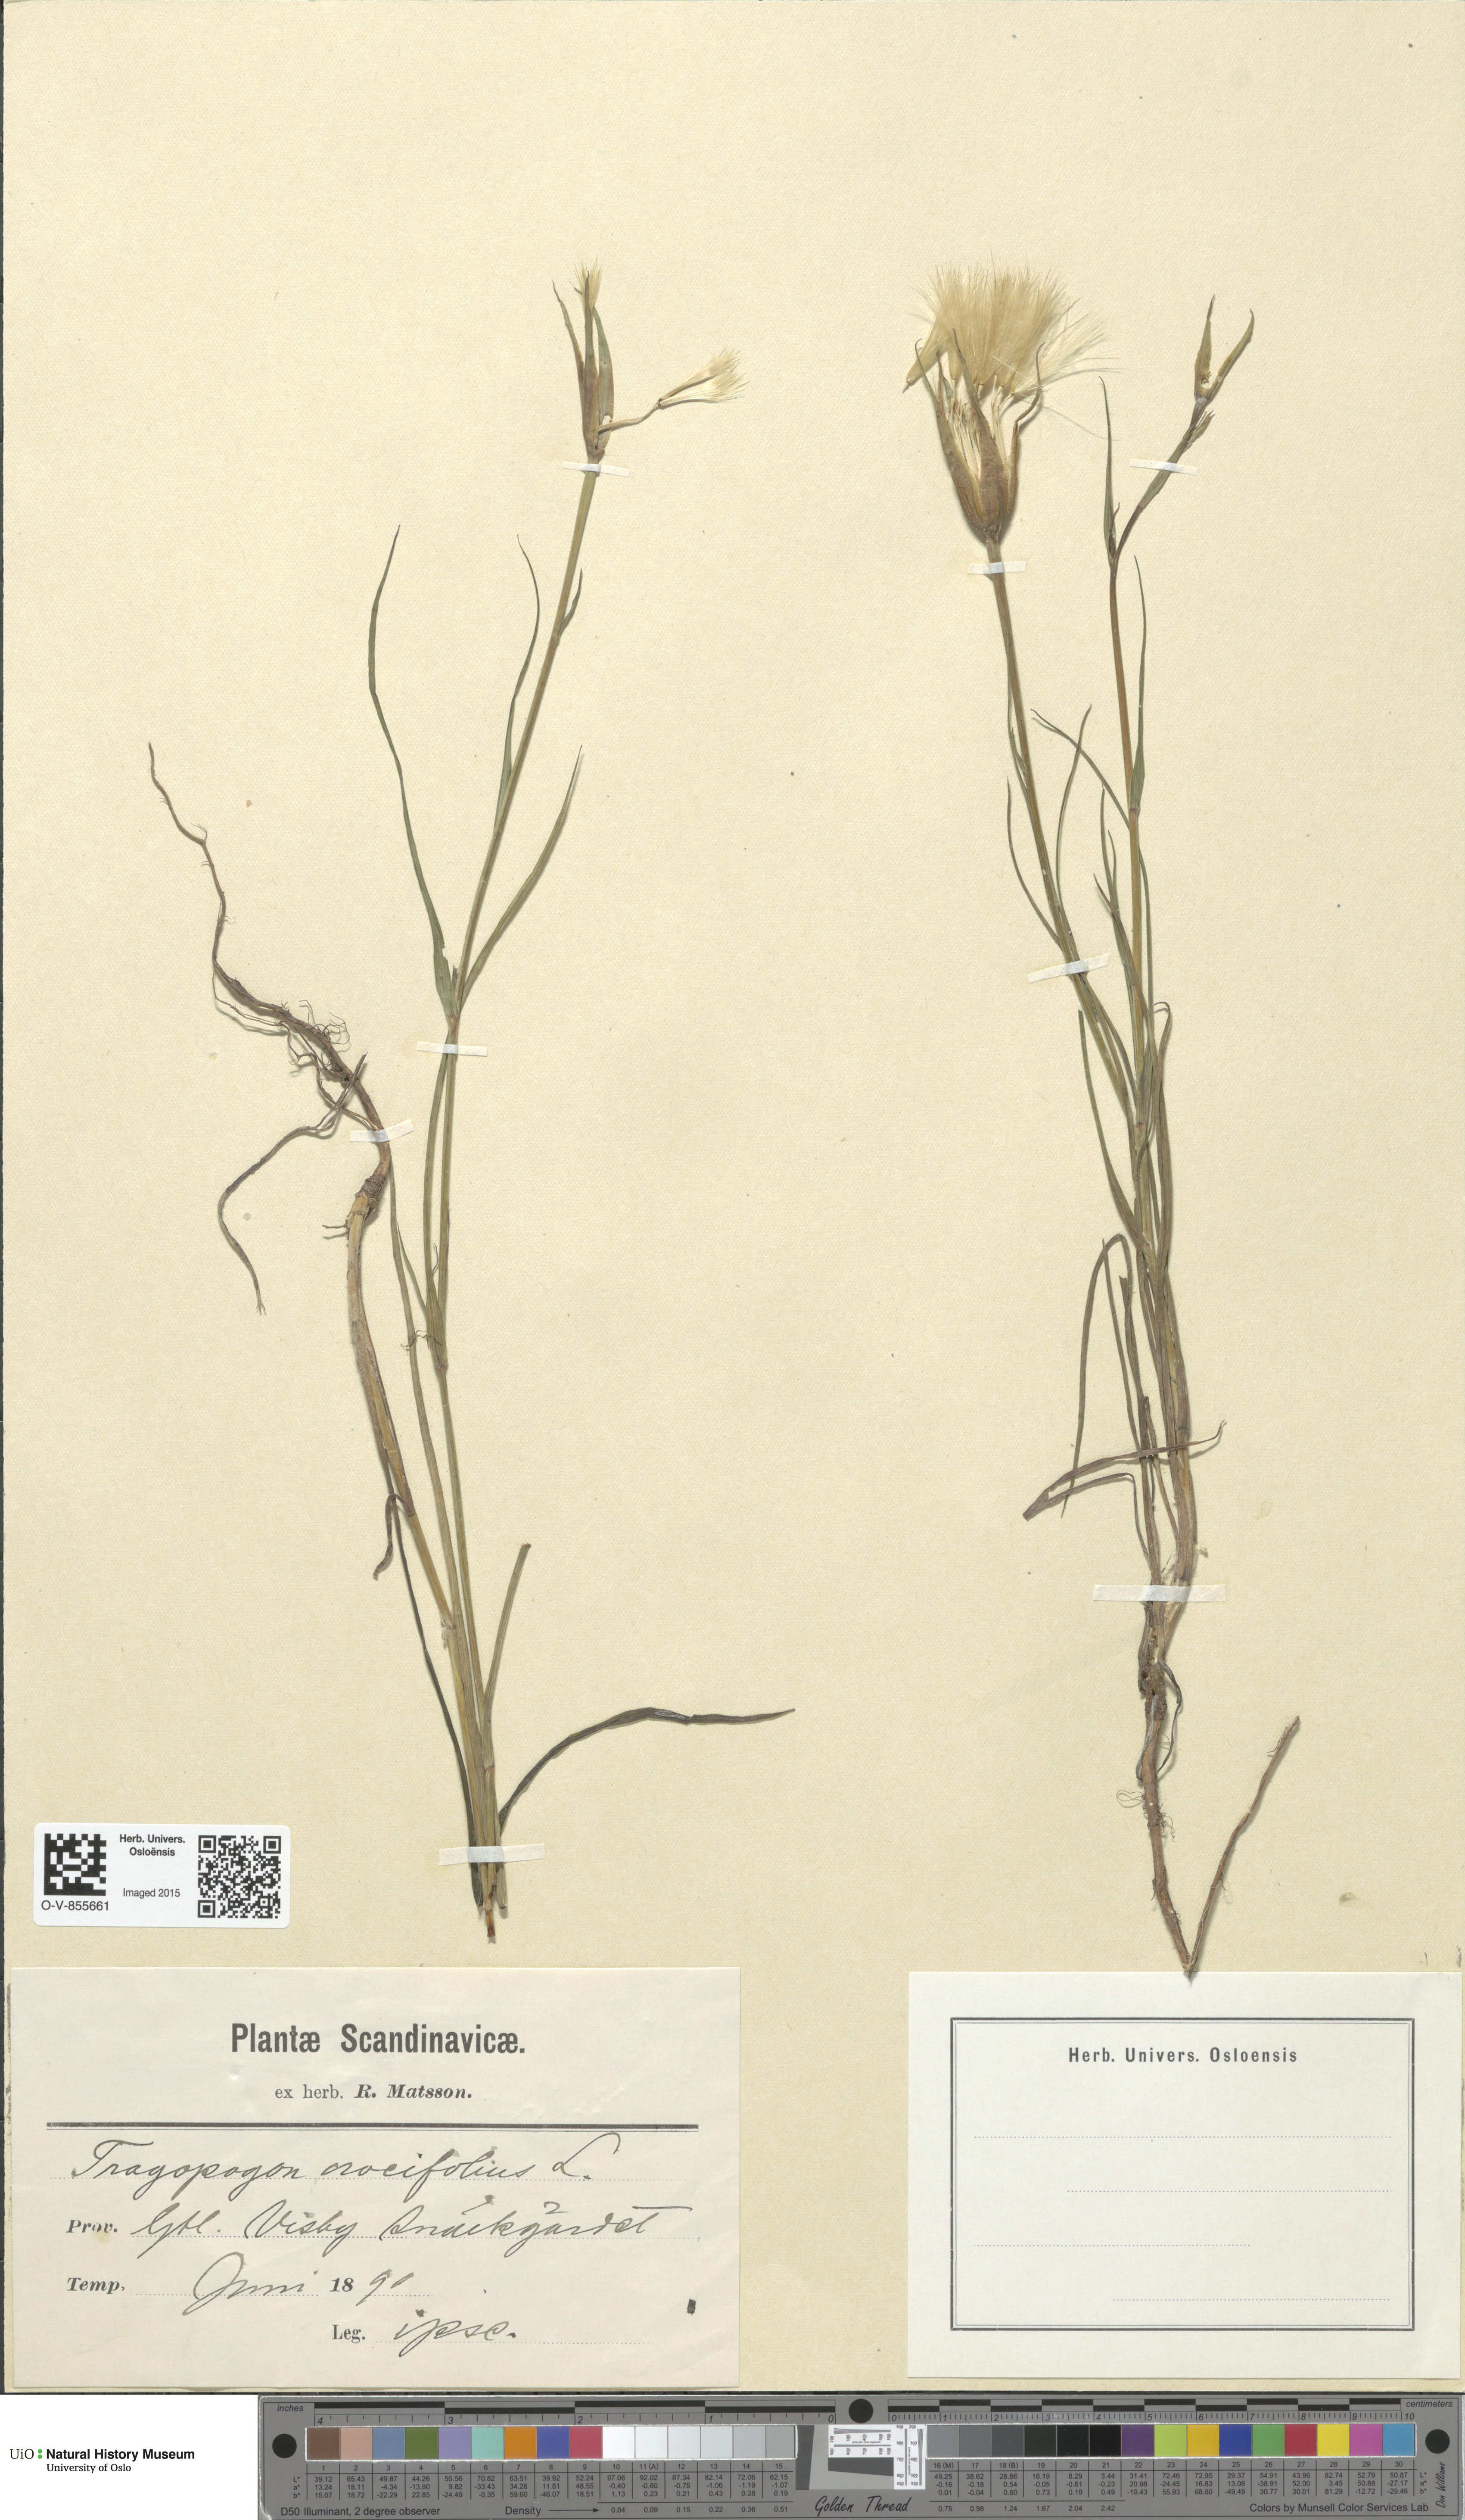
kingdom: Plantae
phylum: Tracheophyta
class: Magnoliopsida
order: Asterales
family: Asteraceae
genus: Tragopogon
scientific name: Tragopogon crocifolius
